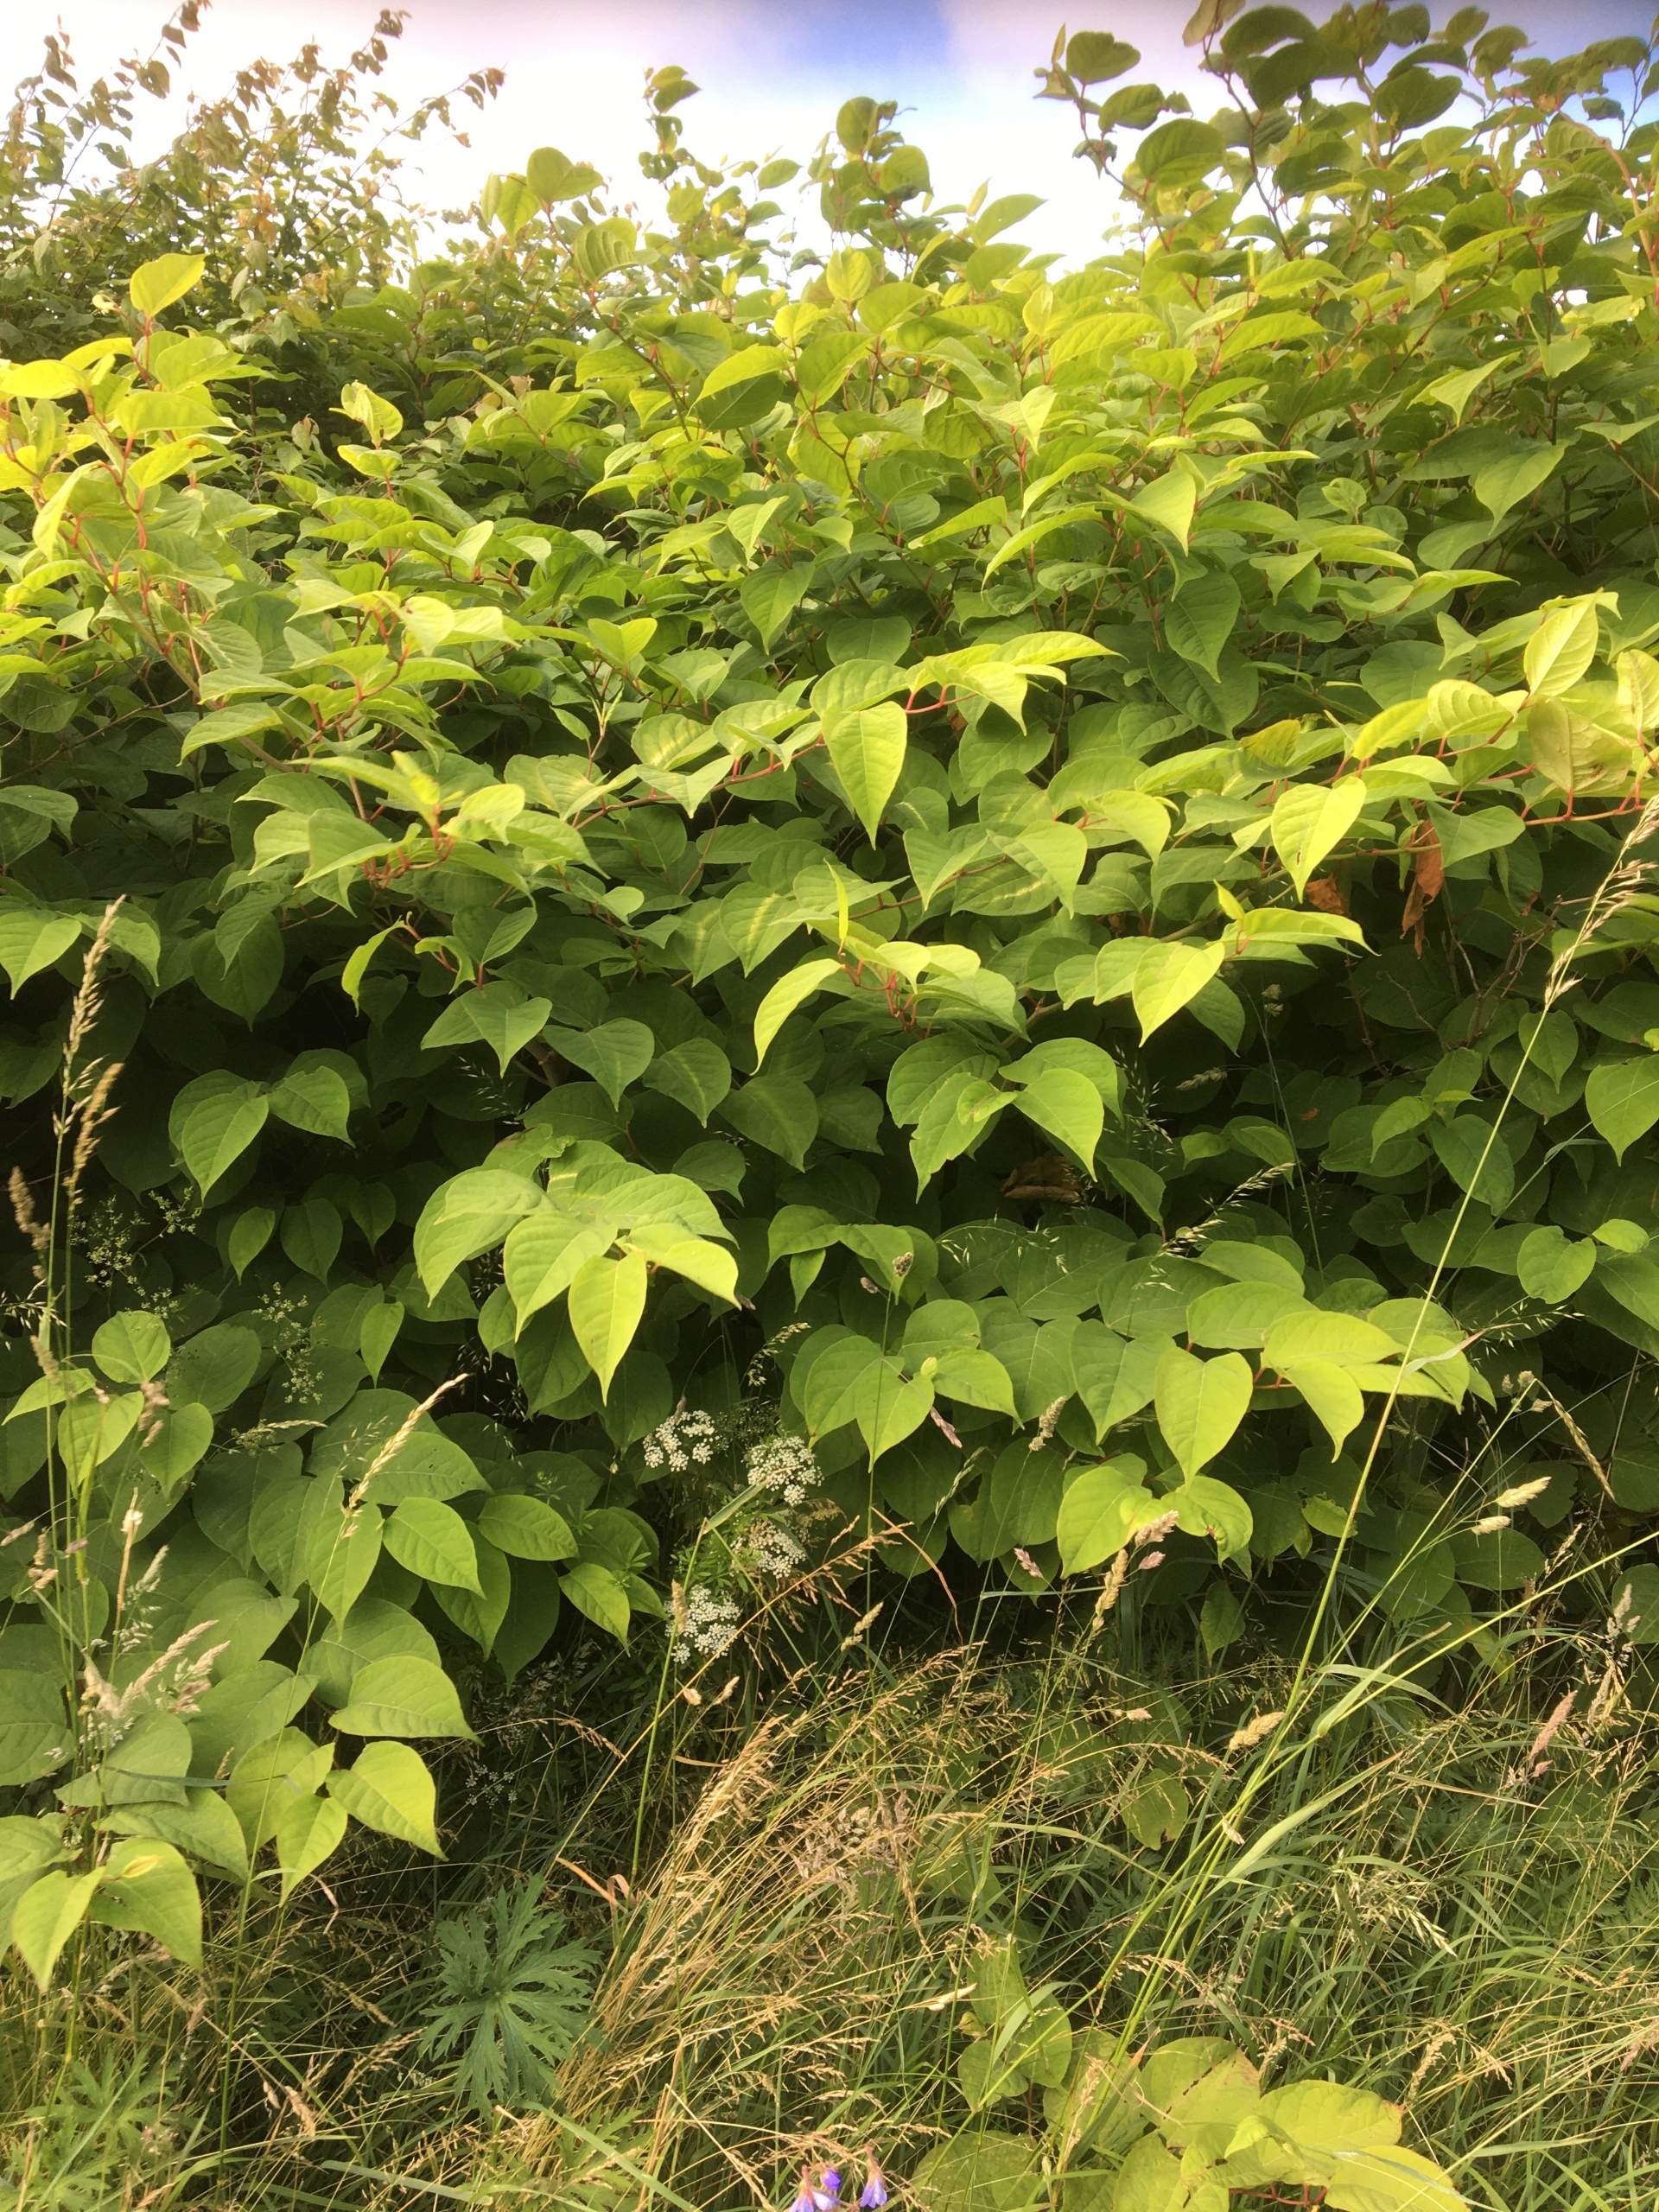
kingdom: Plantae
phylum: Tracheophyta
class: Magnoliopsida
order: Caryophyllales
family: Polygonaceae
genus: Reynoutria
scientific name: Reynoutria japonica
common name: Japan-pileurt
